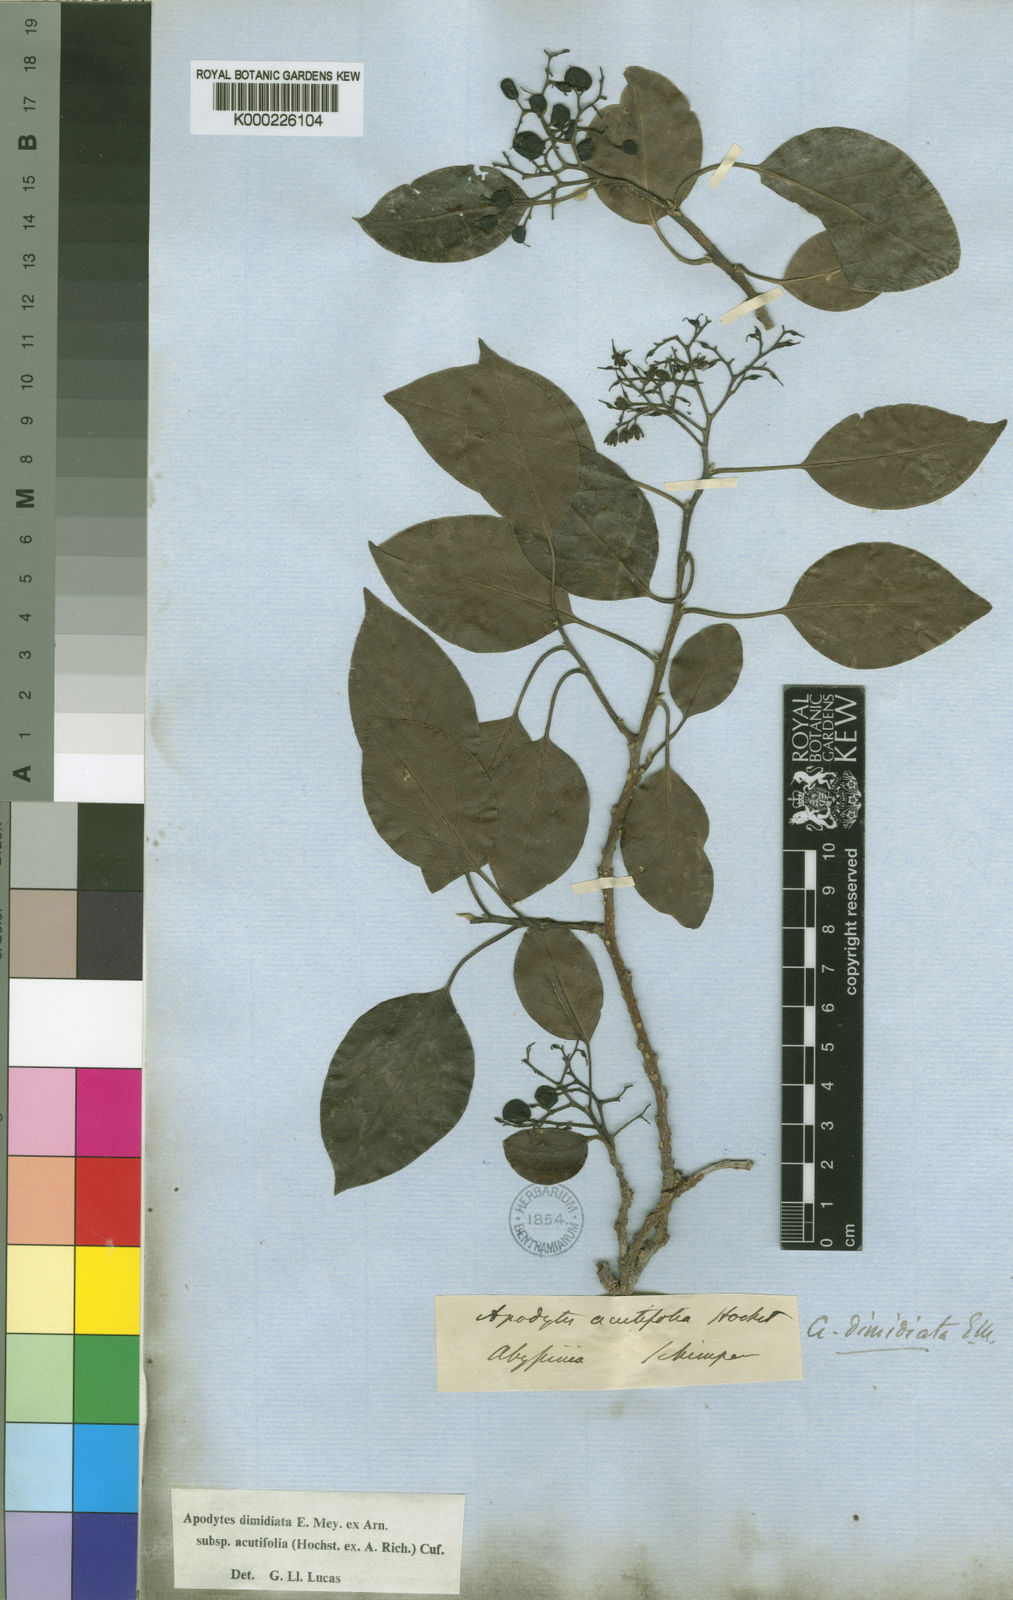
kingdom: Plantae
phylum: Tracheophyta
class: Magnoliopsida
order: Metteniusales
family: Metteniusaceae
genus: Apodytes
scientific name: Apodytes dimidiata
